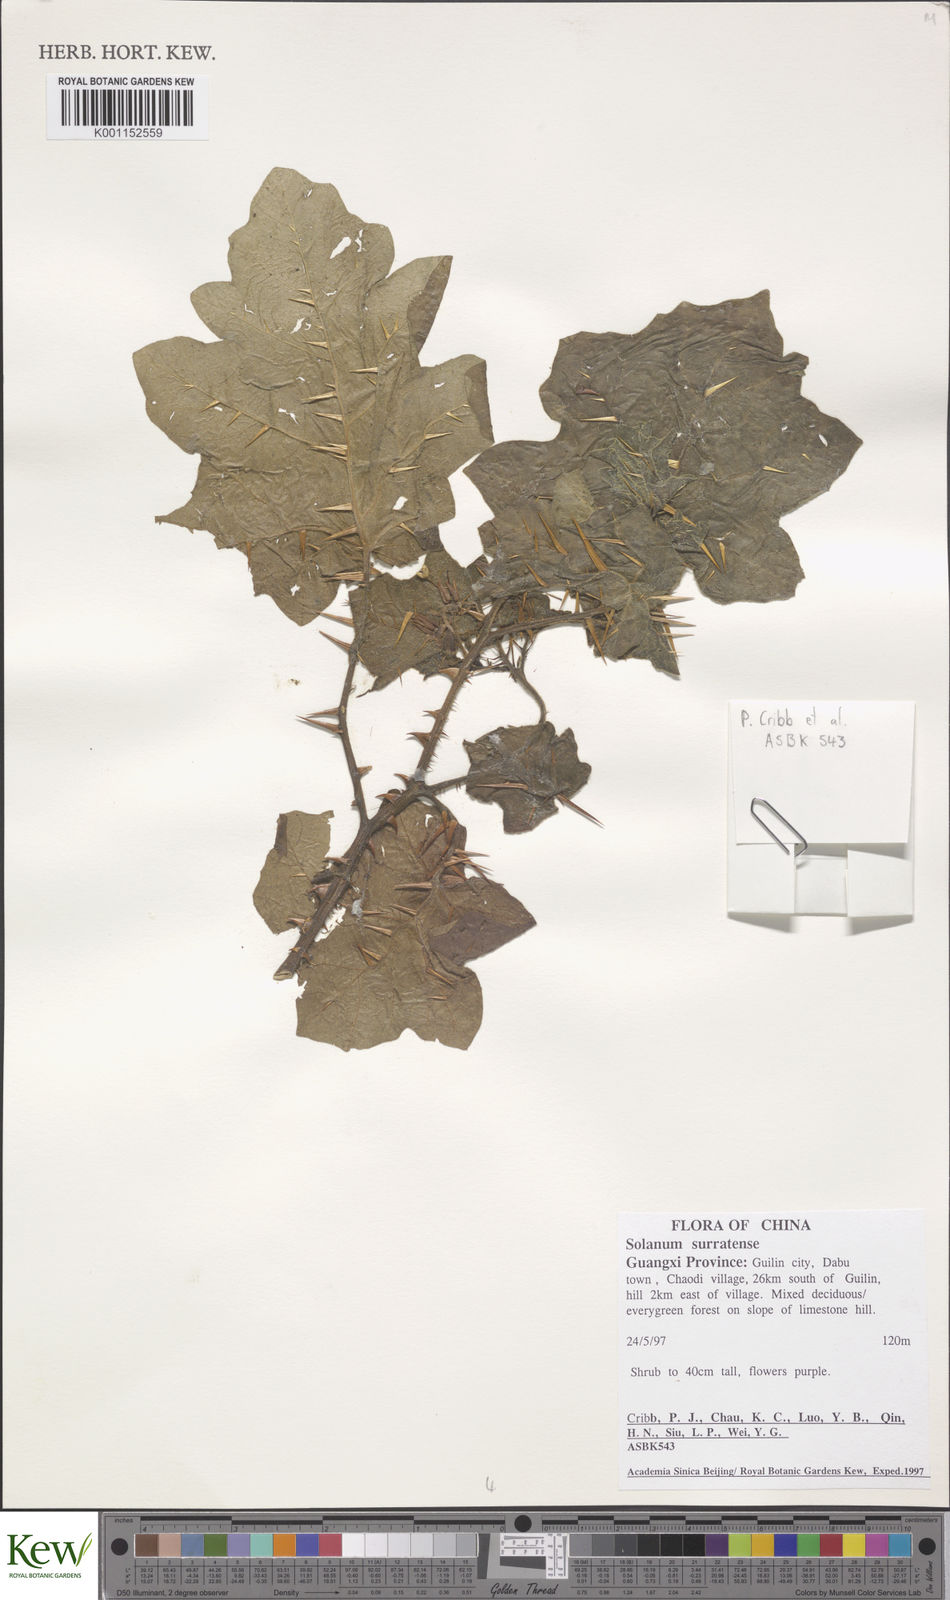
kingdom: Plantae
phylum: Tracheophyta
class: Magnoliopsida
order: Solanales
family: Solanaceae
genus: Solanum
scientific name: Solanum viarum
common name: Tropical soda apple
